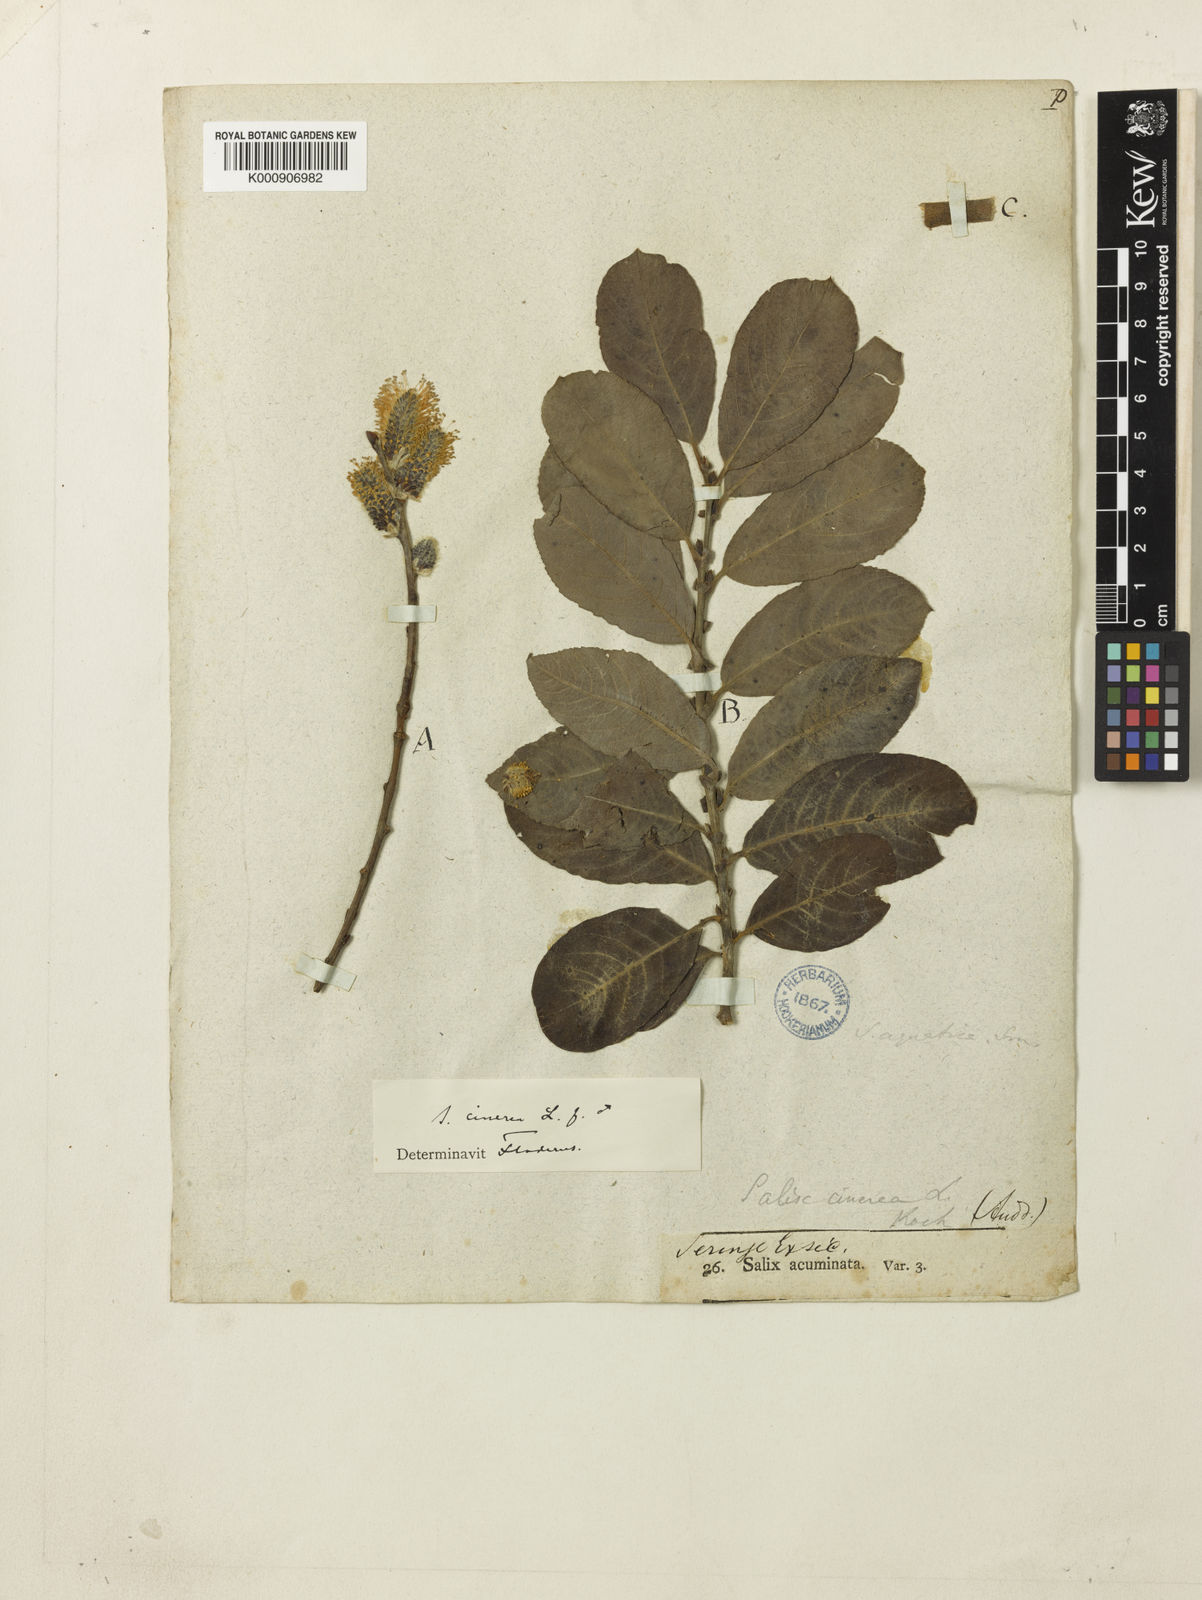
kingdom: Plantae
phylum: Tracheophyta
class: Magnoliopsida
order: Malpighiales
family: Salicaceae
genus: Salix
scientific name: Salix cinerea
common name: Common sallow
